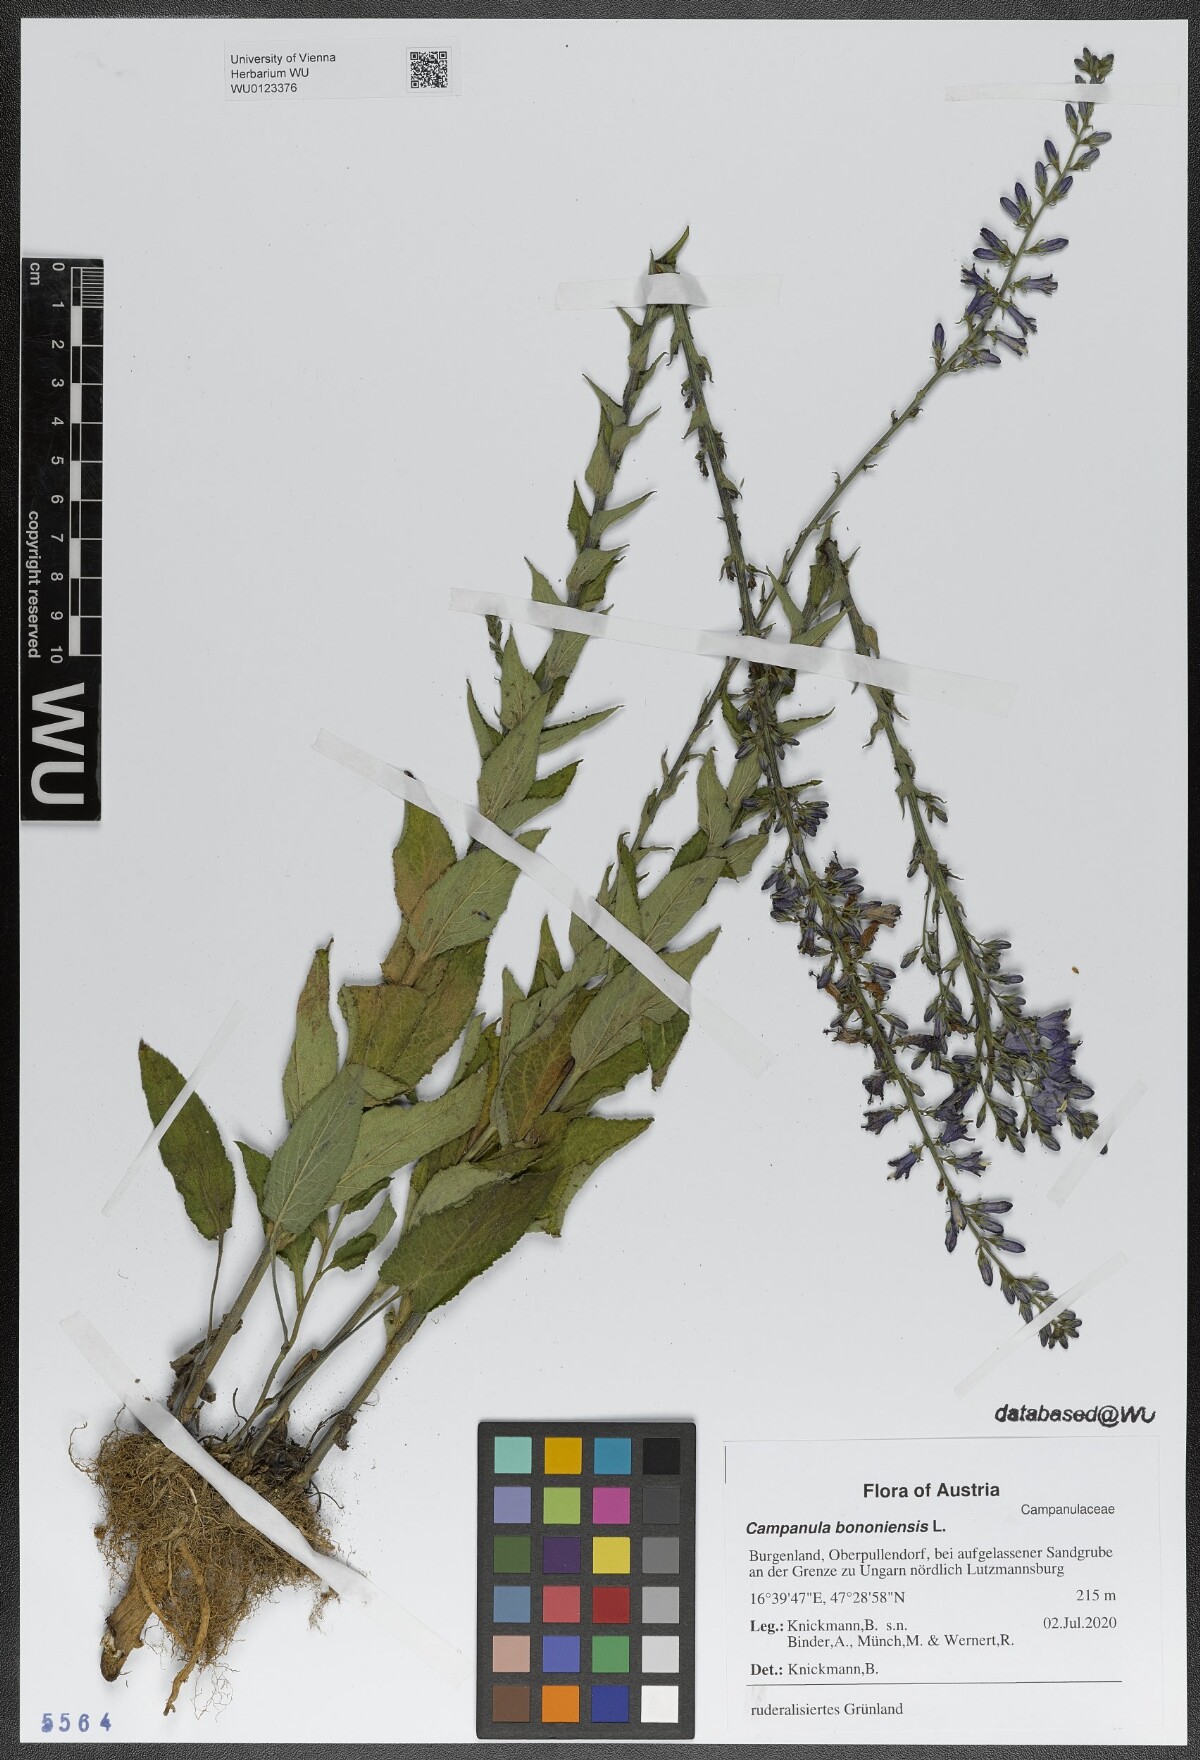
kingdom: Plantae
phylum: Tracheophyta
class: Magnoliopsida
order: Asterales
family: Campanulaceae
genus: Campanula
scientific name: Campanula bononiensis
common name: Pale bellflower
